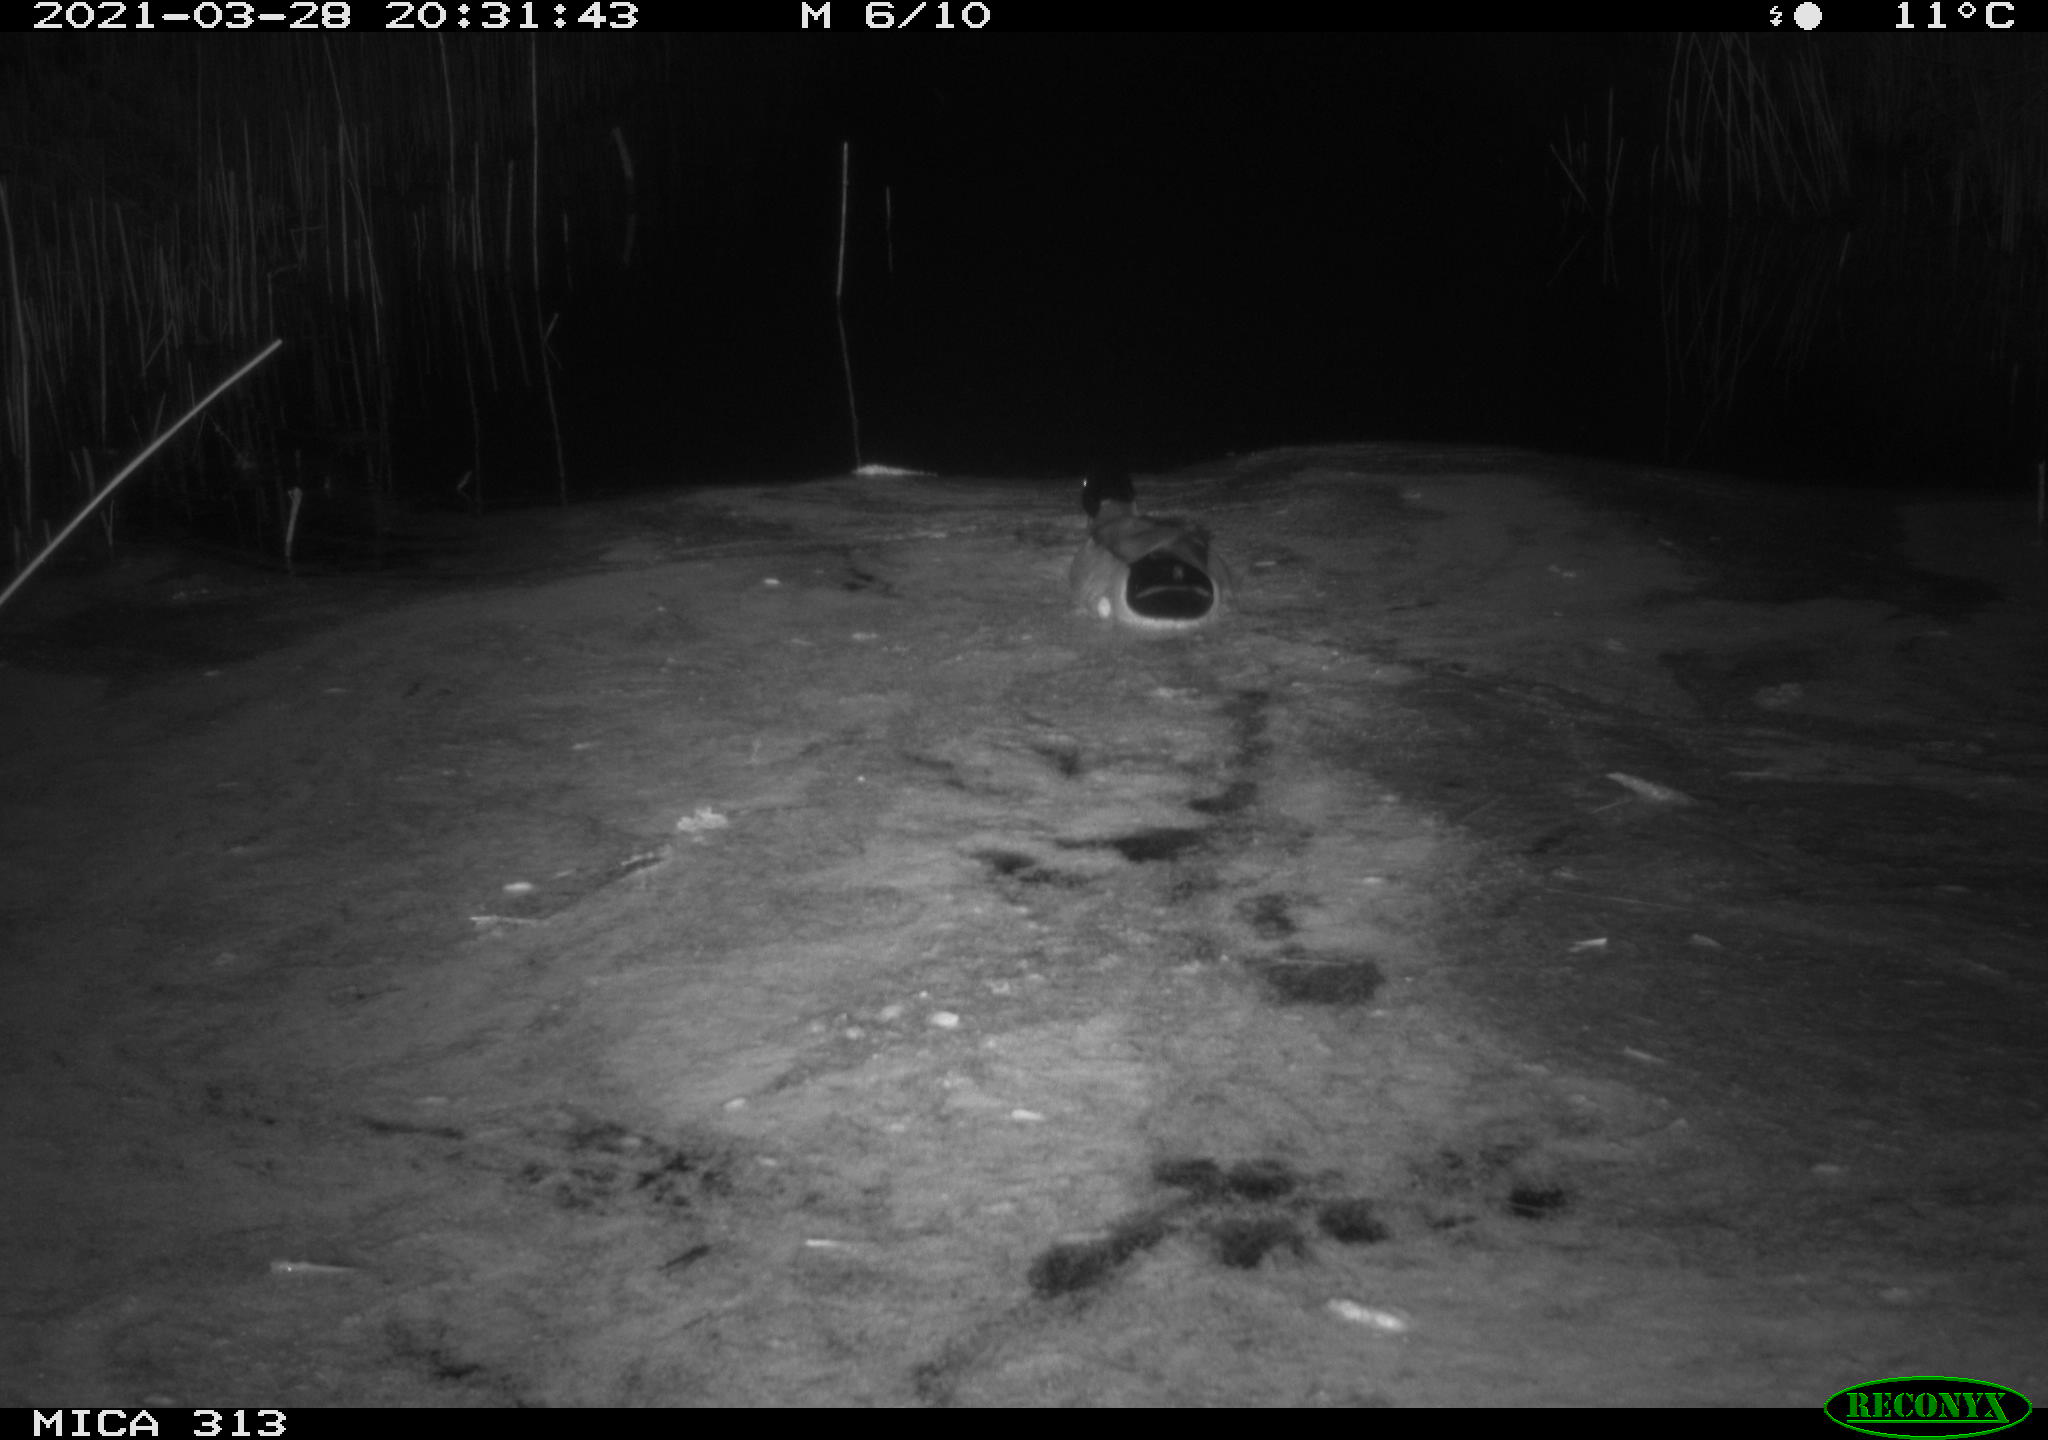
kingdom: Animalia
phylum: Chordata
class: Aves
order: Anseriformes
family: Anatidae
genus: Anas
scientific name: Anas platyrhynchos
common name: Mallard
